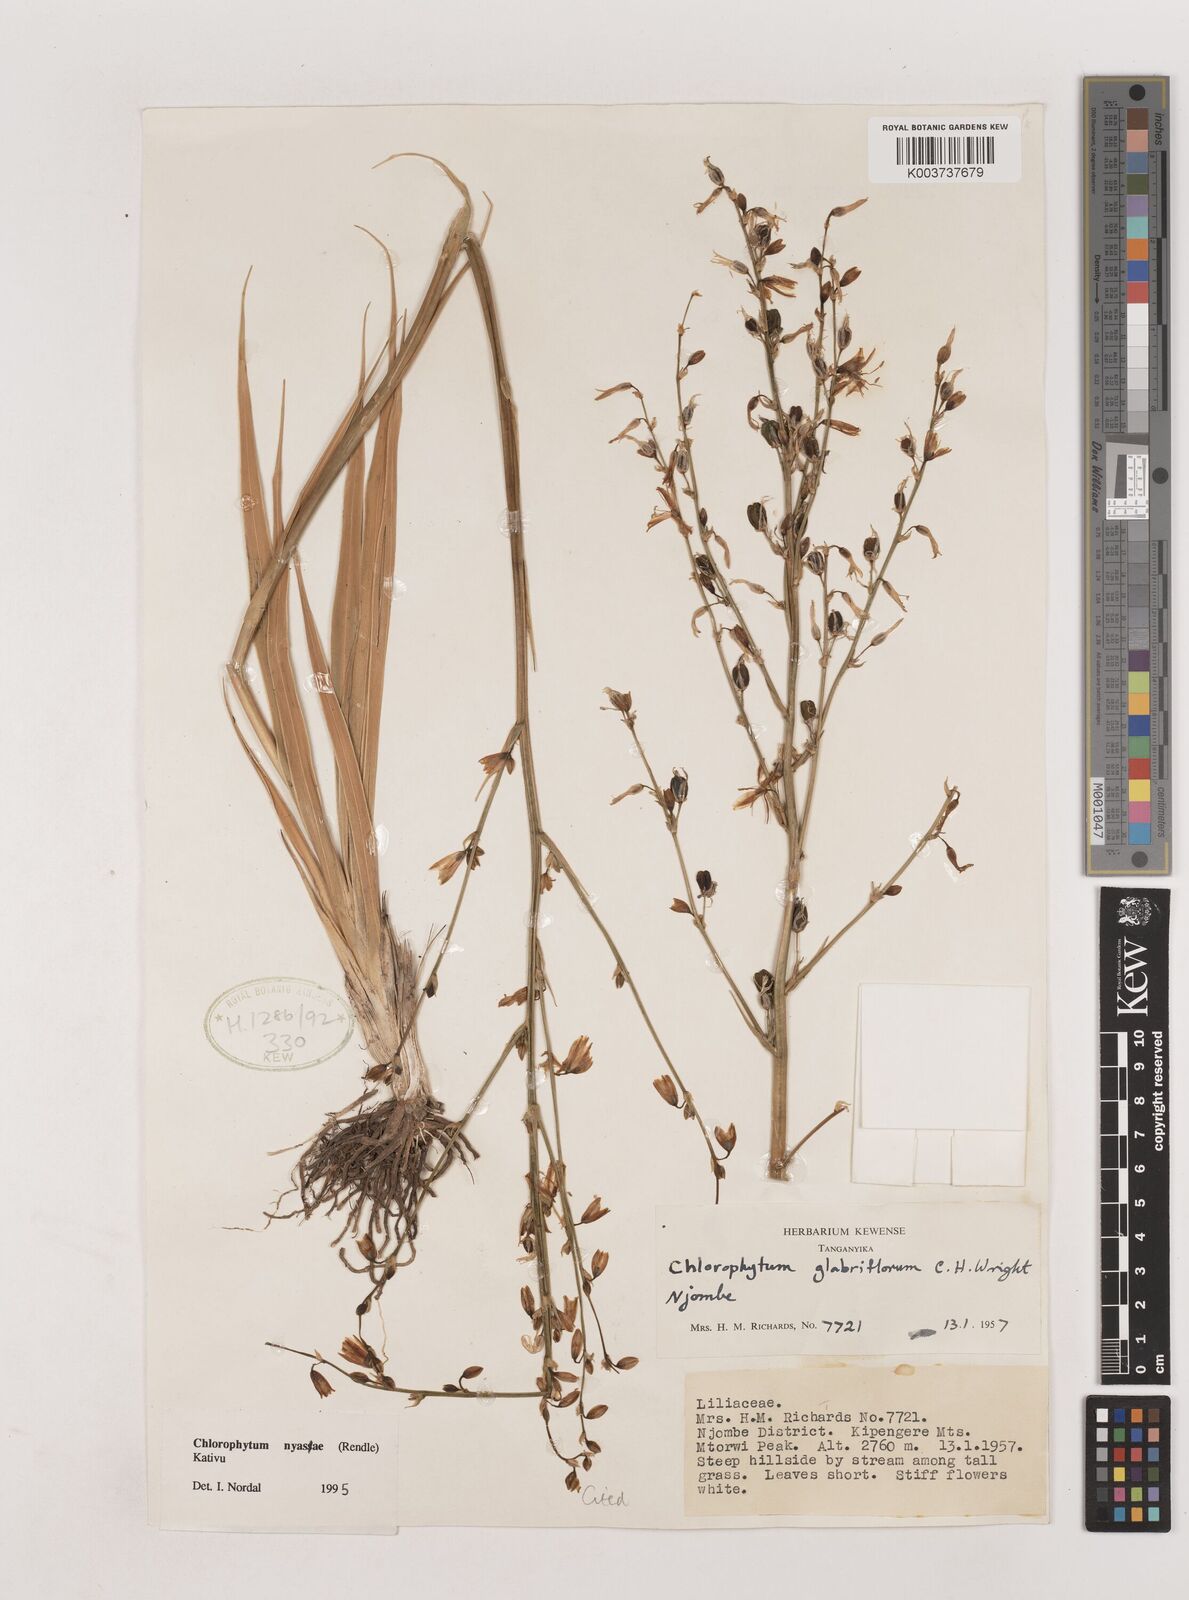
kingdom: Plantae
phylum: Tracheophyta
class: Liliopsida
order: Asparagales
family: Asparagaceae
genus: Chlorophytum
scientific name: Chlorophytum nyasae
